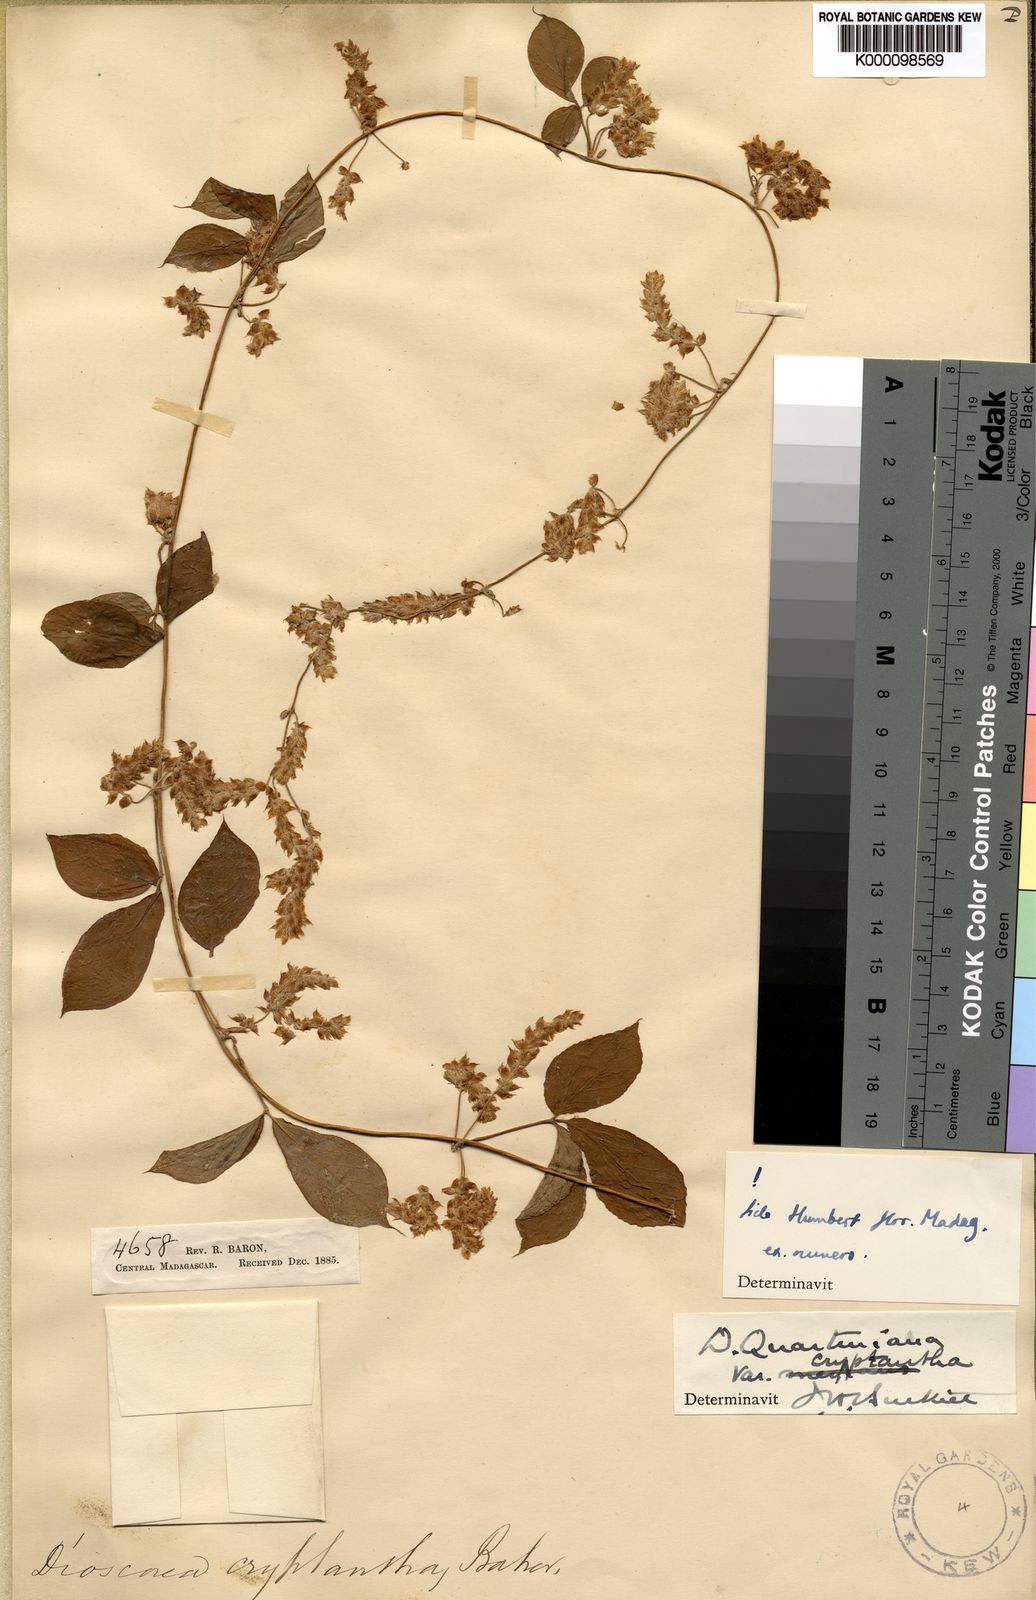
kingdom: Plantae
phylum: Tracheophyta
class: Liliopsida
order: Dioscoreales
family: Dioscoreaceae
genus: Dioscorea
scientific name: Dioscorea quartiniana
